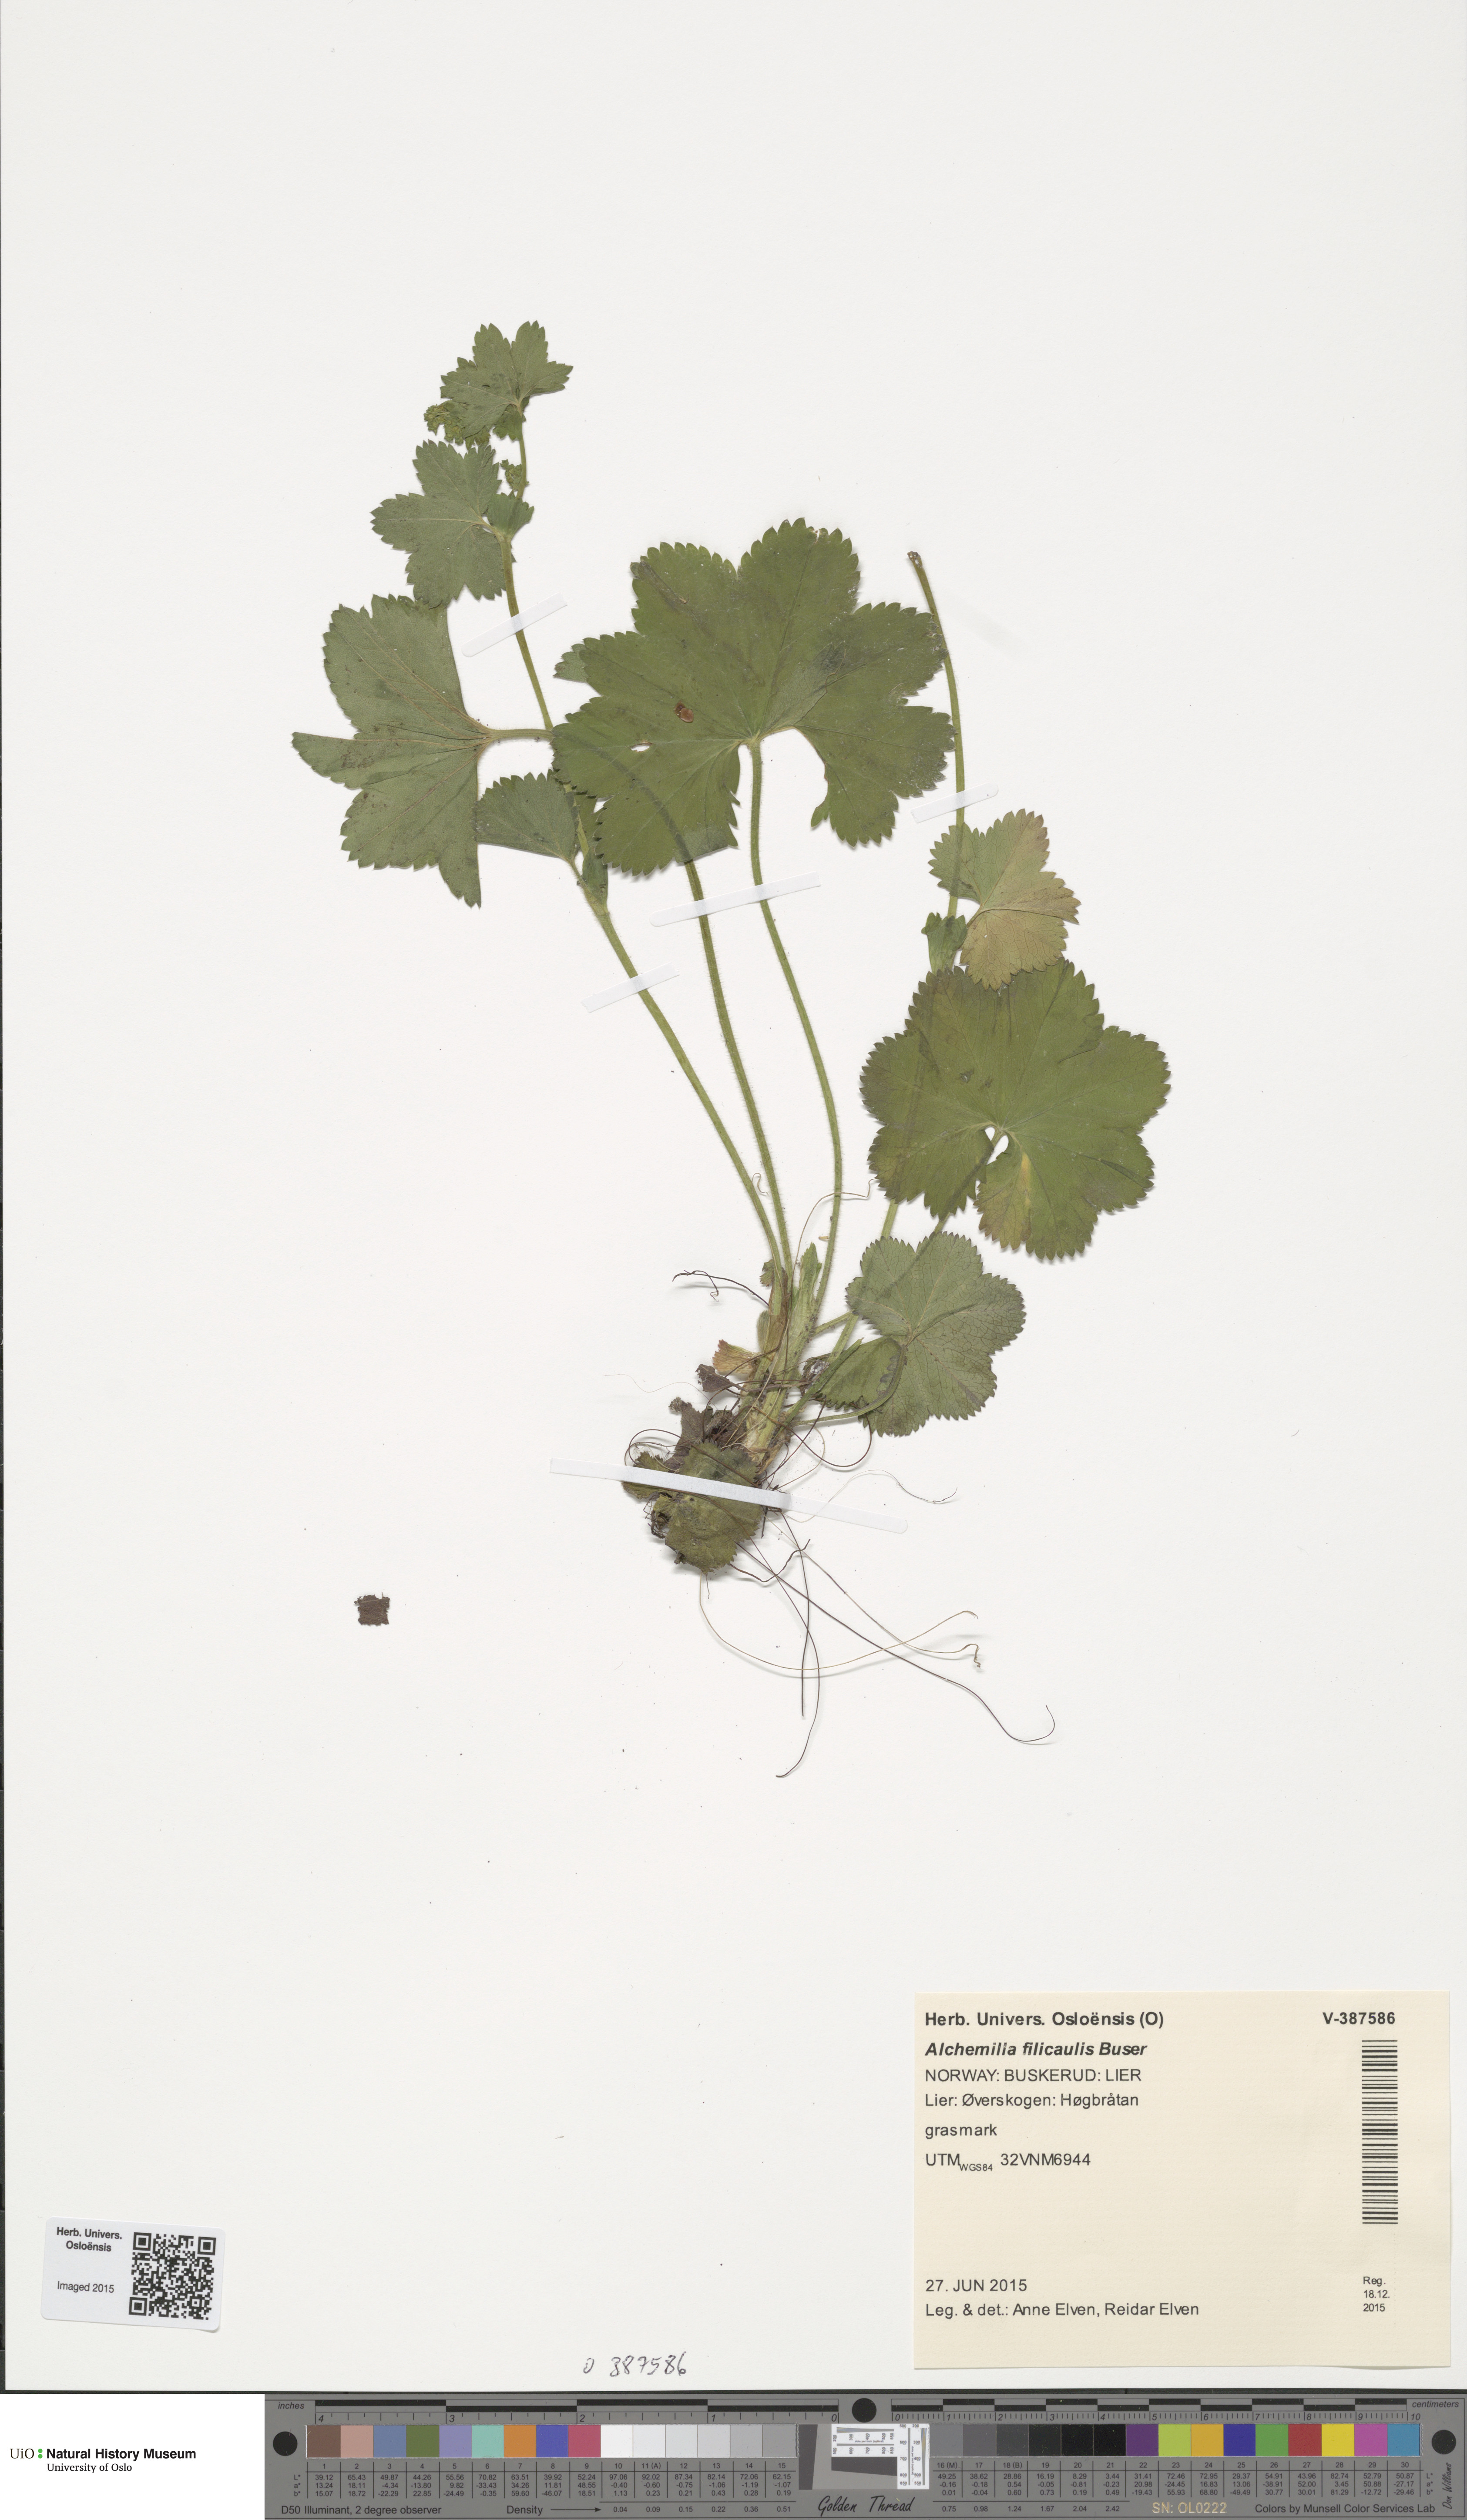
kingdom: Plantae
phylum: Tracheophyta
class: Magnoliopsida
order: Rosales
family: Rosaceae
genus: Alchemilla
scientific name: Alchemilla filicaulis
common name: Hairy lady's-mantle
